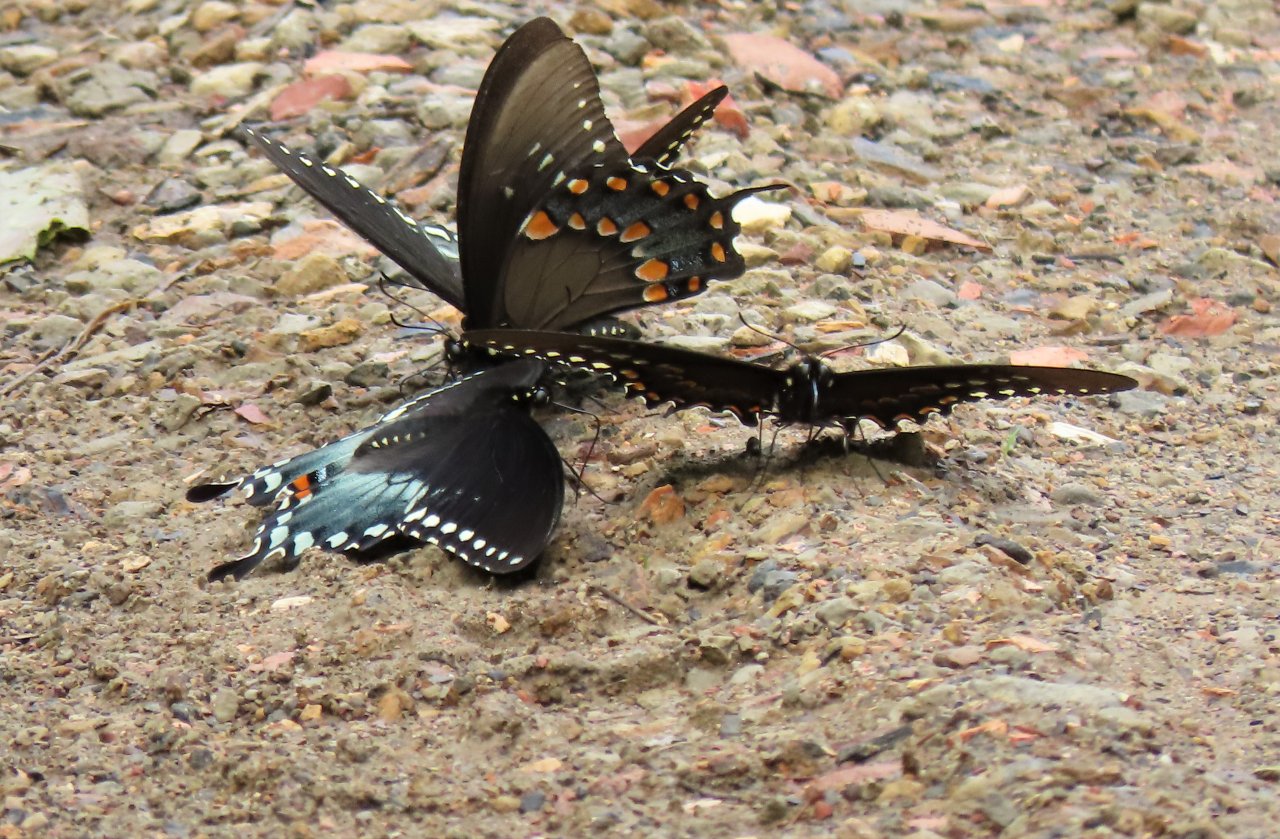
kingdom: Animalia
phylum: Arthropoda
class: Insecta
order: Lepidoptera
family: Papilionidae
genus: Pterourus
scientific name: Pterourus troilus
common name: Spicebush Swallowtail
